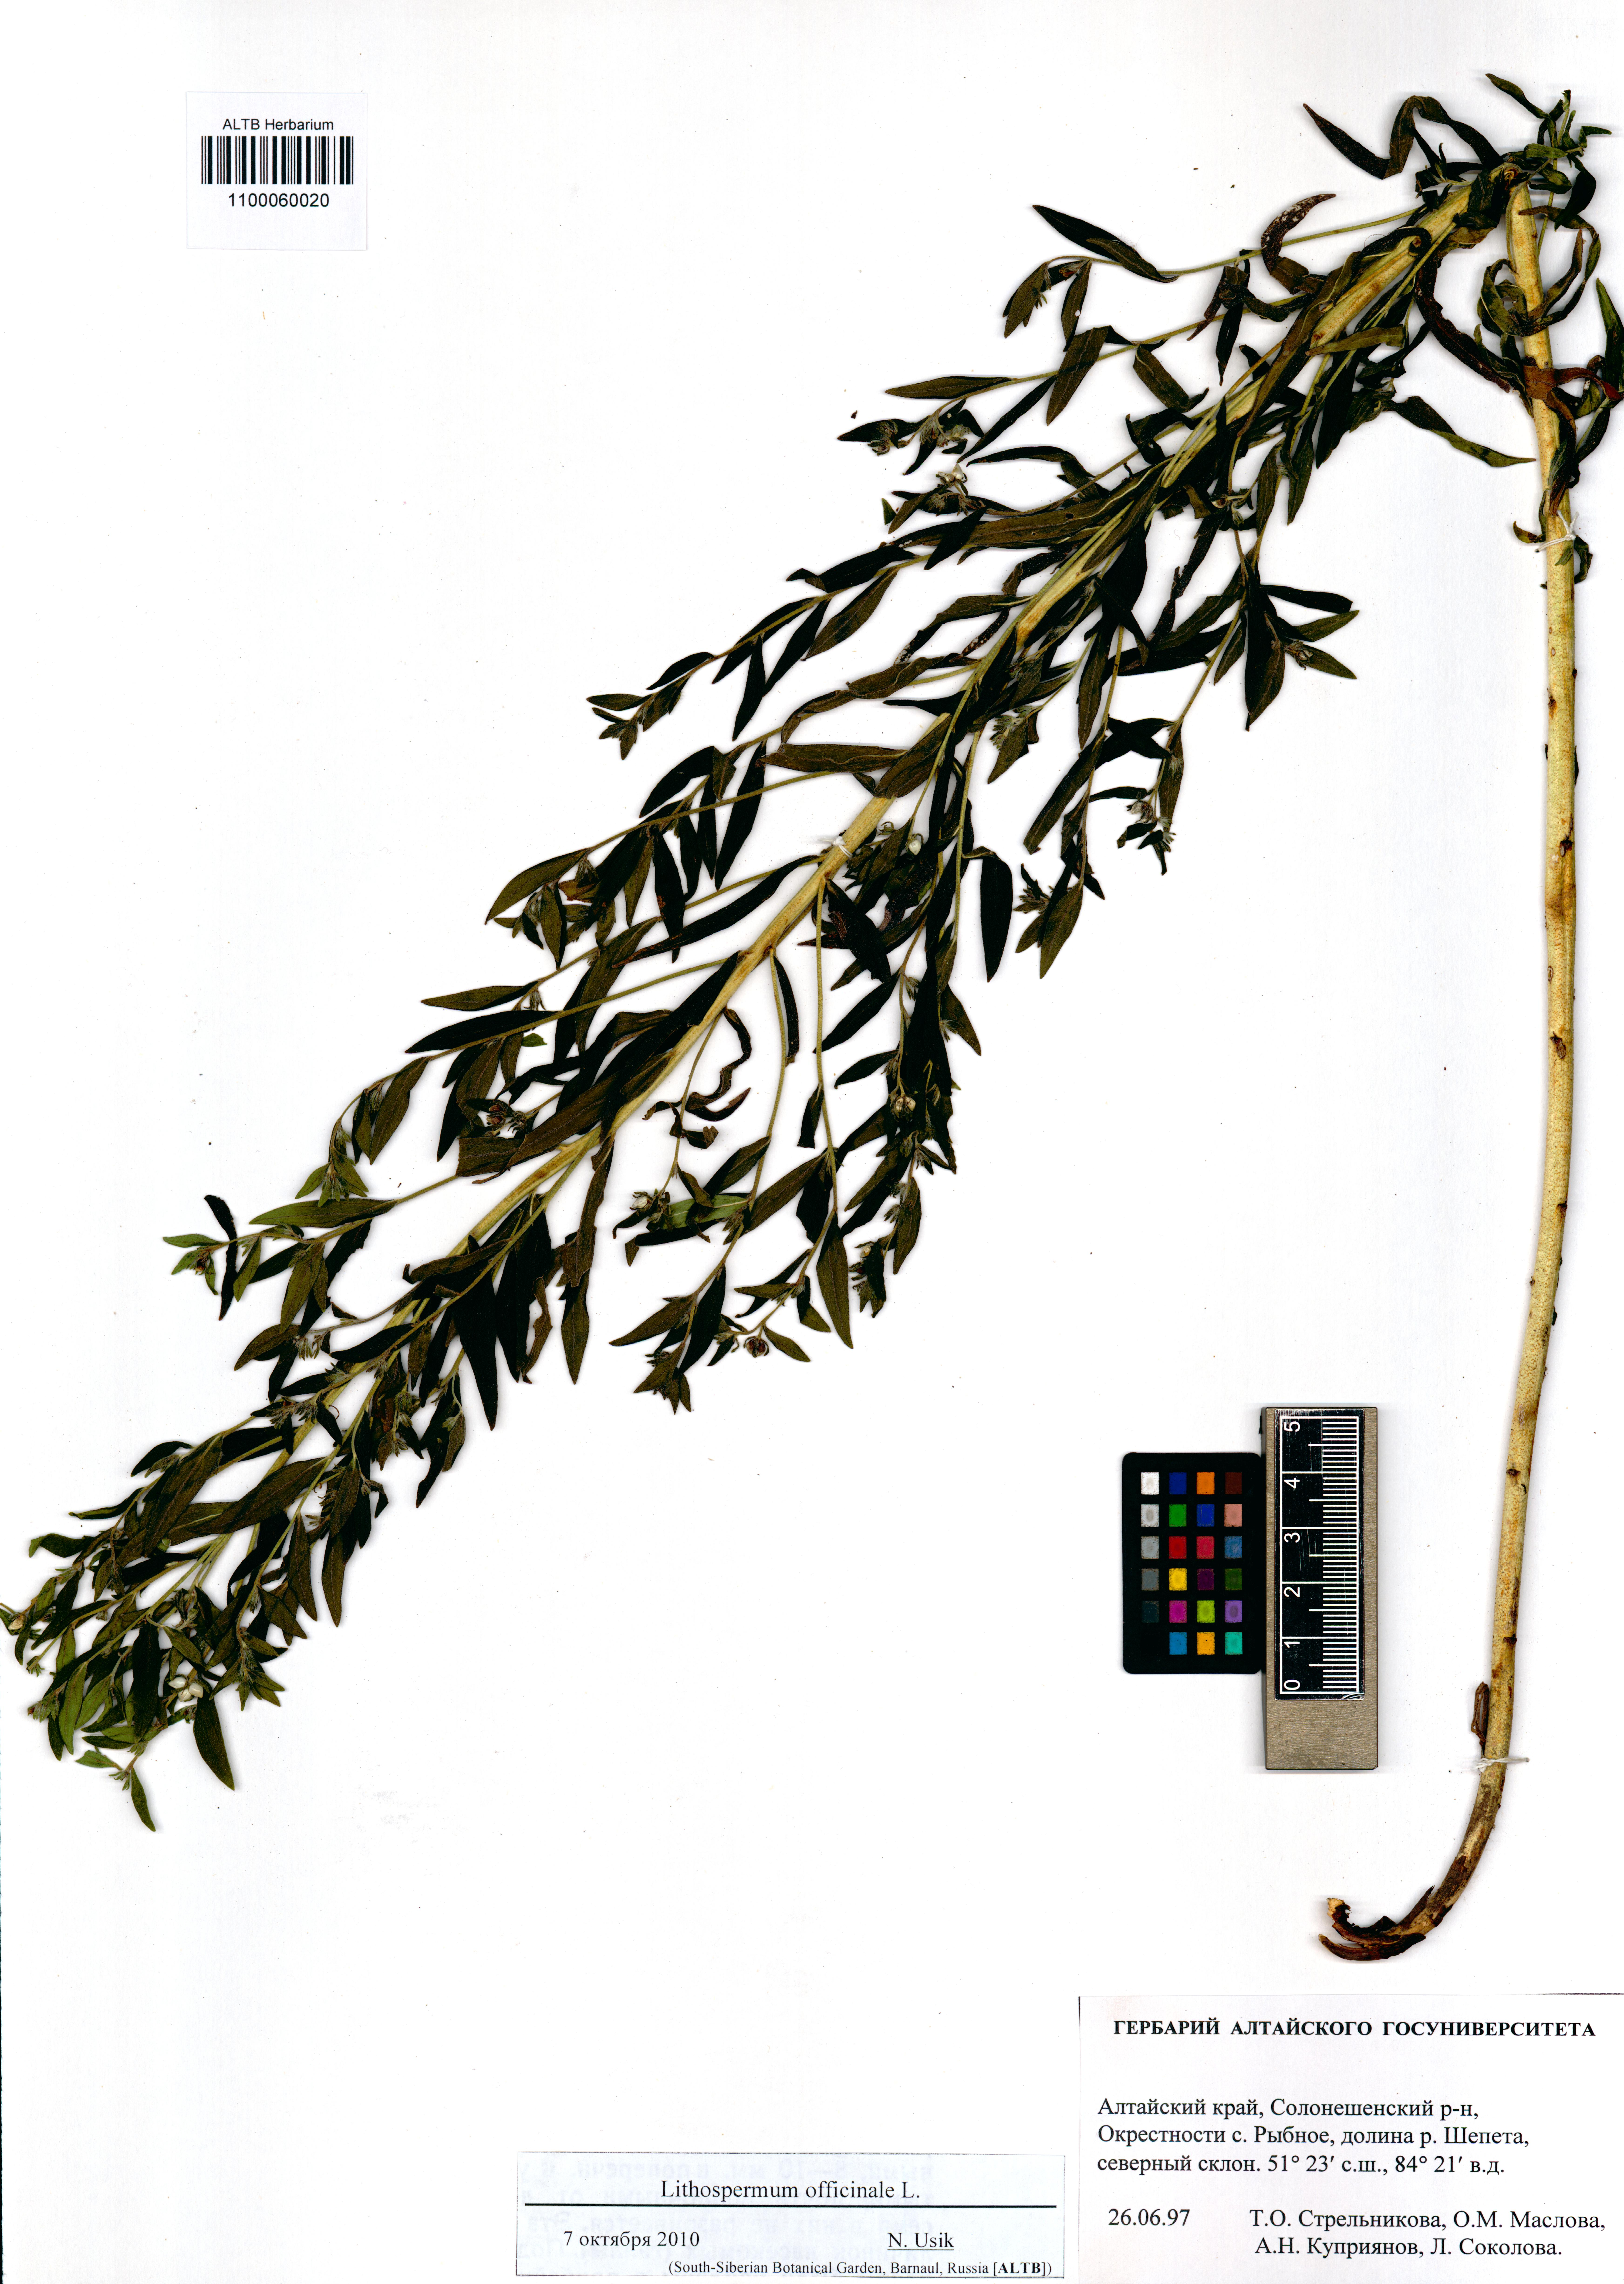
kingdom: Plantae
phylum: Tracheophyta
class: Magnoliopsida
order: Boraginales
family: Boraginaceae
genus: Lithospermum
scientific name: Lithospermum officinale
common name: Common gromwell
